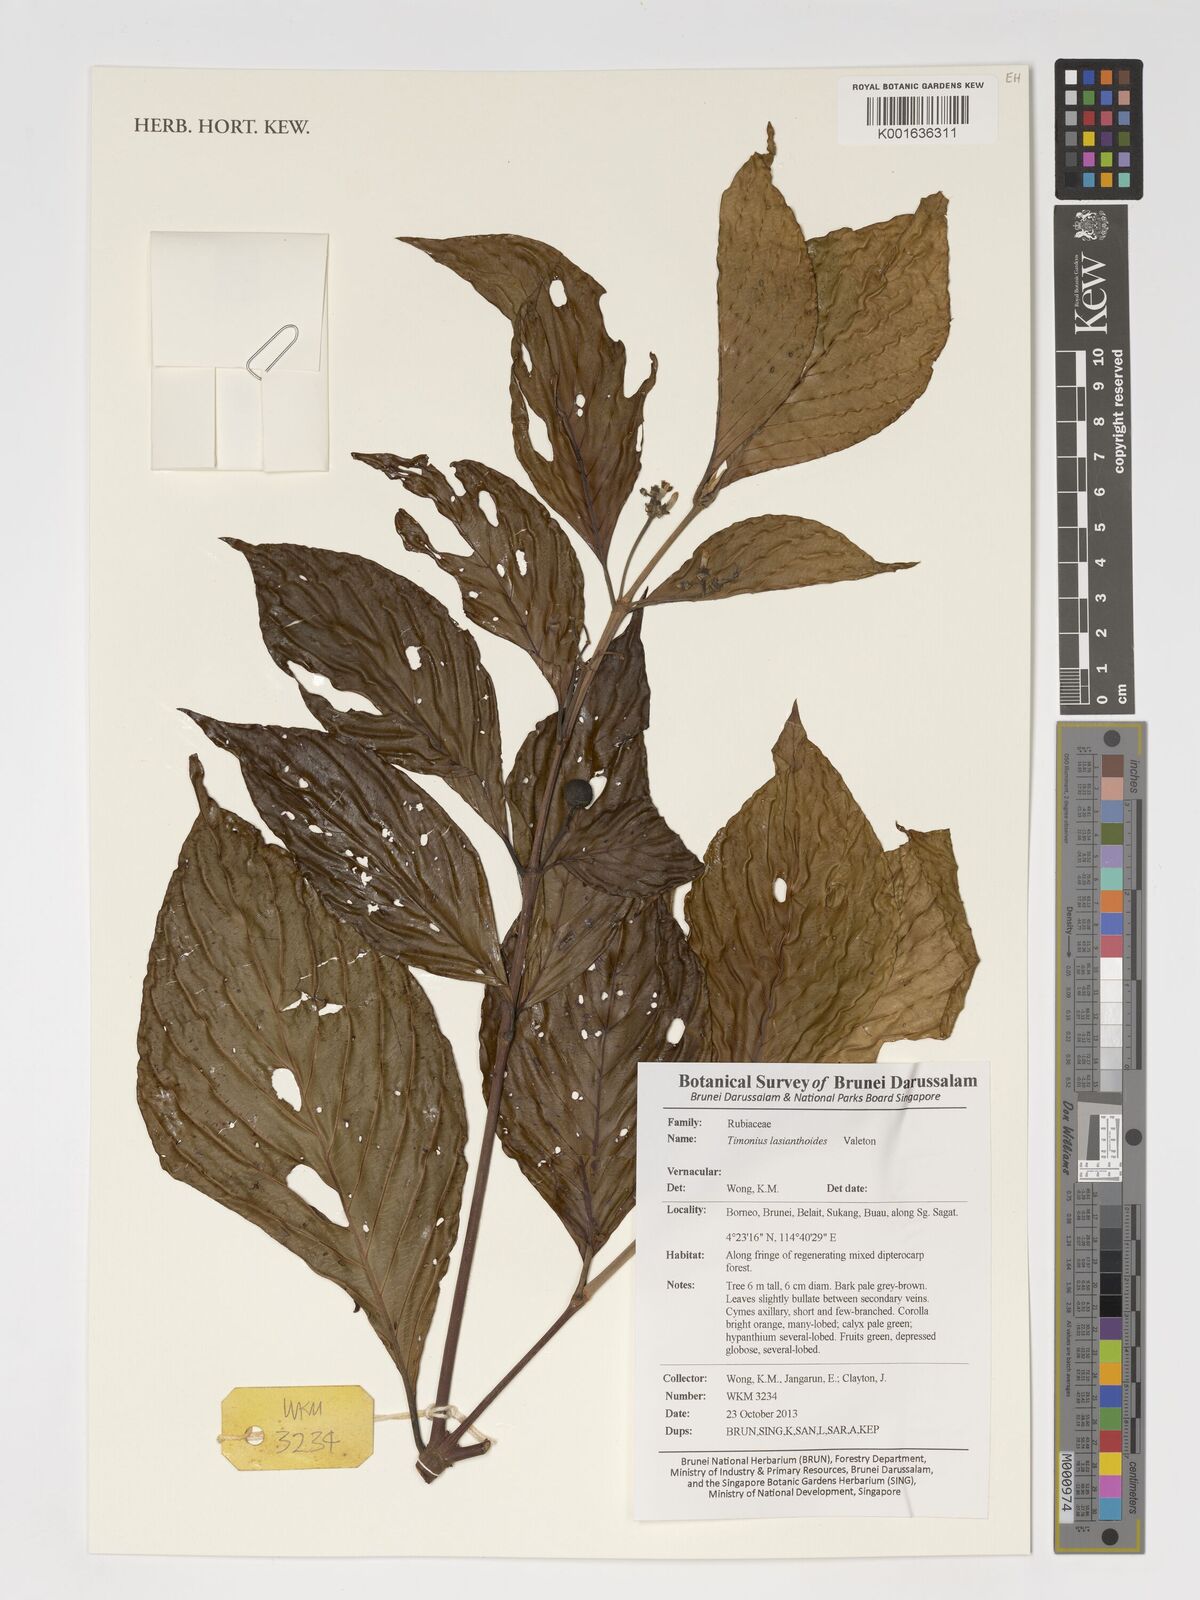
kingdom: Plantae
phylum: Tracheophyta
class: Magnoliopsida
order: Gentianales
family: Rubiaceae
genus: Timonius
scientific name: Timonius lasianthoides
